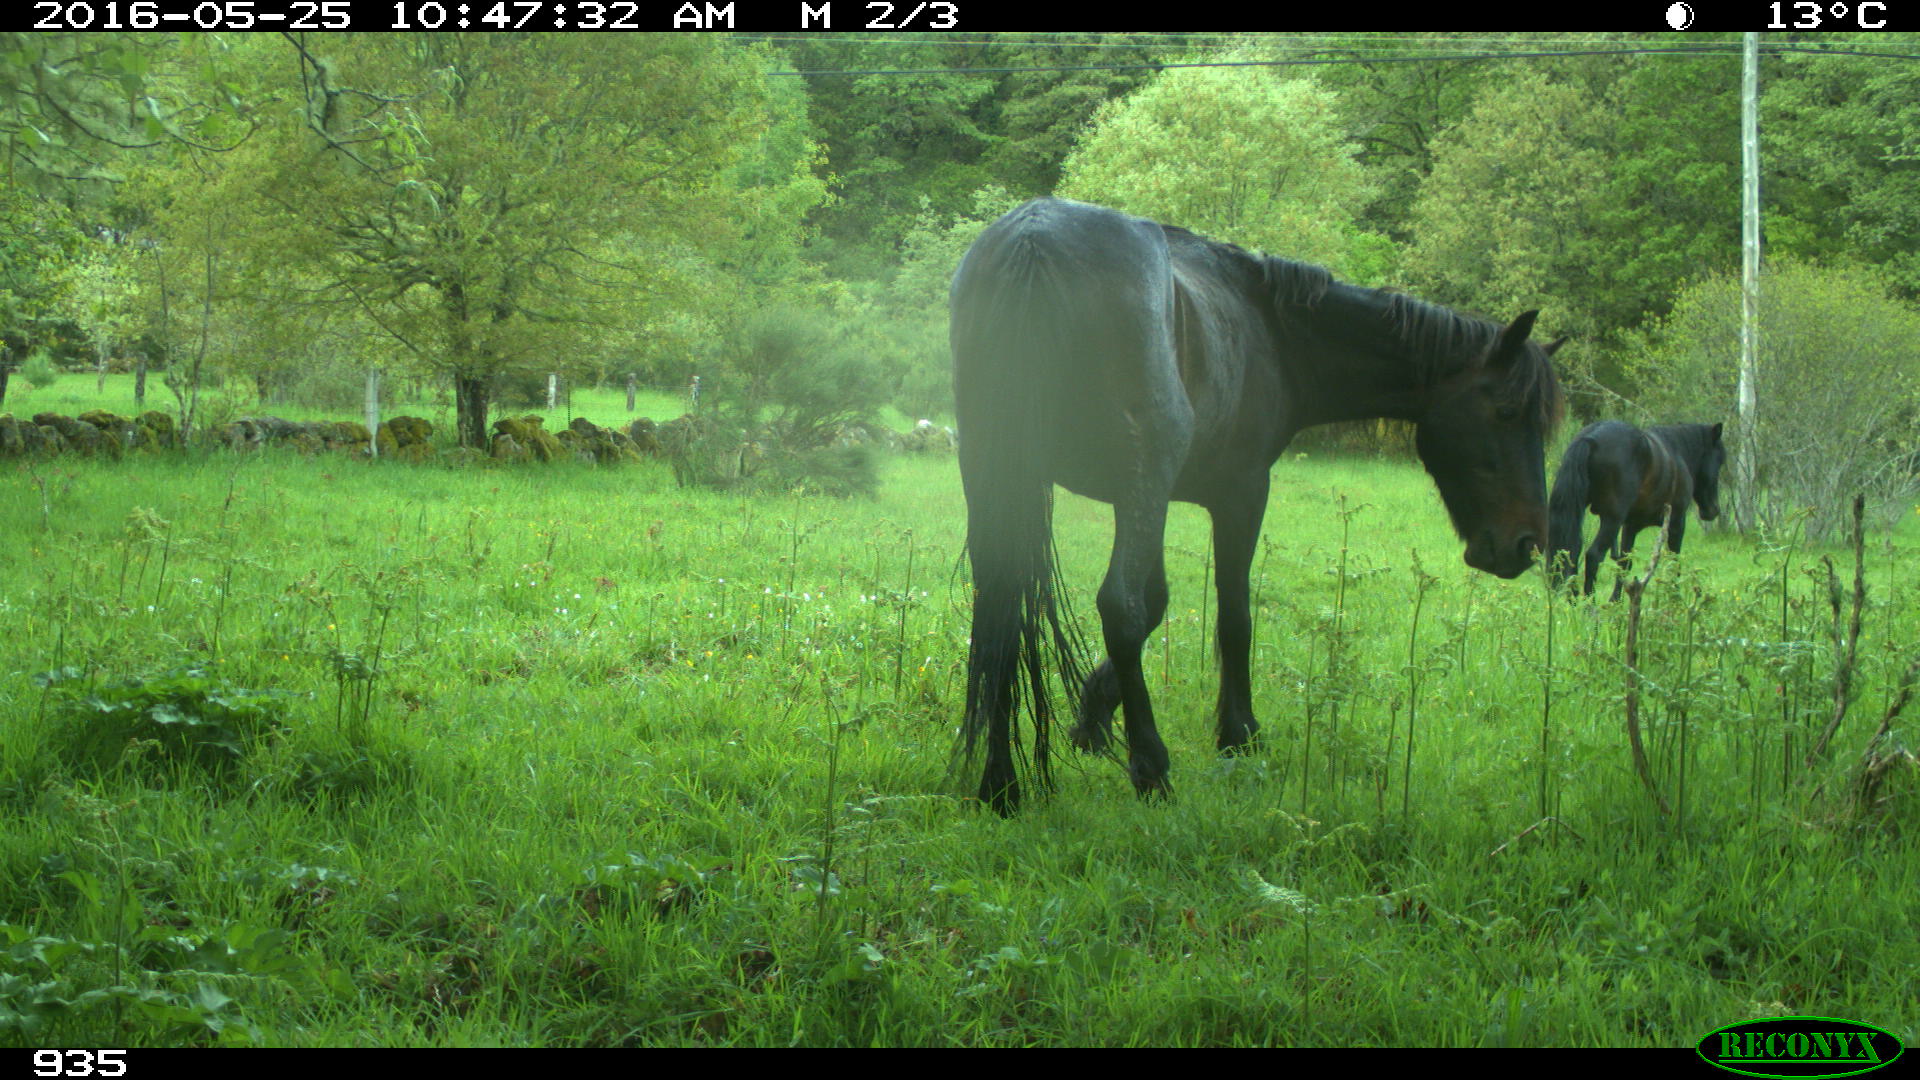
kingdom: Animalia
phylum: Chordata
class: Mammalia
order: Perissodactyla
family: Equidae
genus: Equus
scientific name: Equus caballus
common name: Horse
